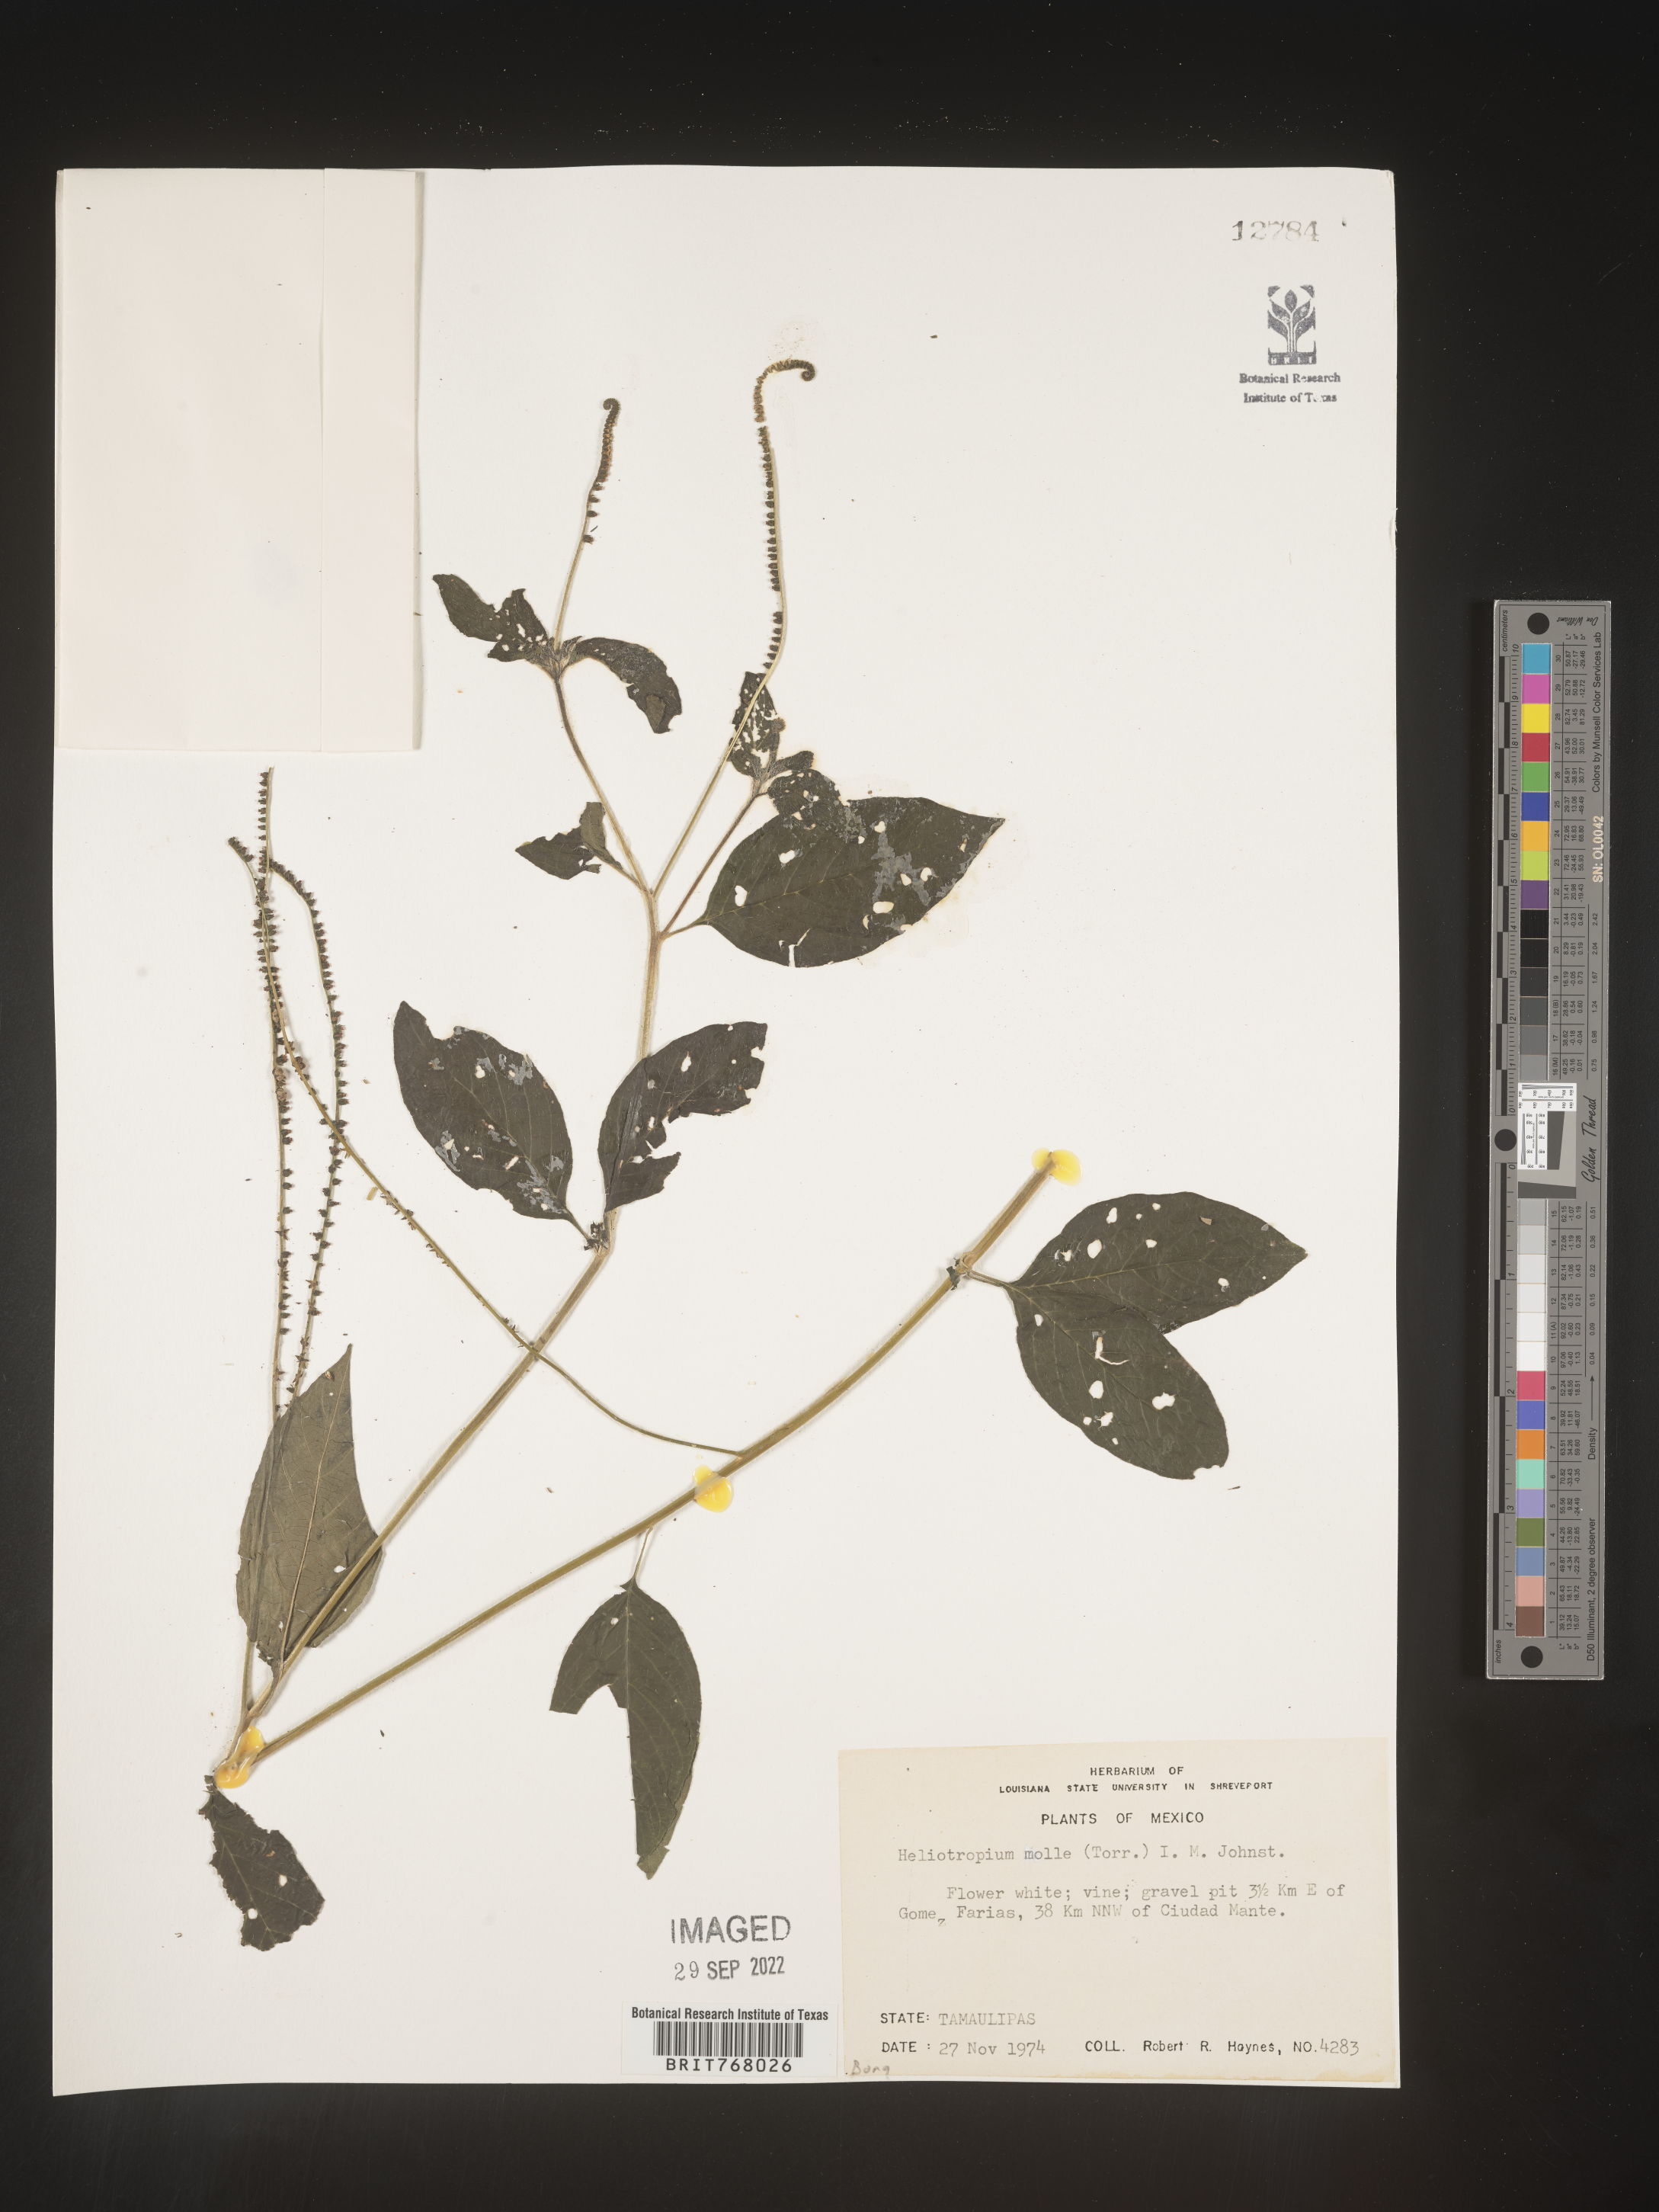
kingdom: Plantae
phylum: Tracheophyta
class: Magnoliopsida
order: Boraginales
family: Heliotropiaceae
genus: Heliotropium
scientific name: Heliotropium
